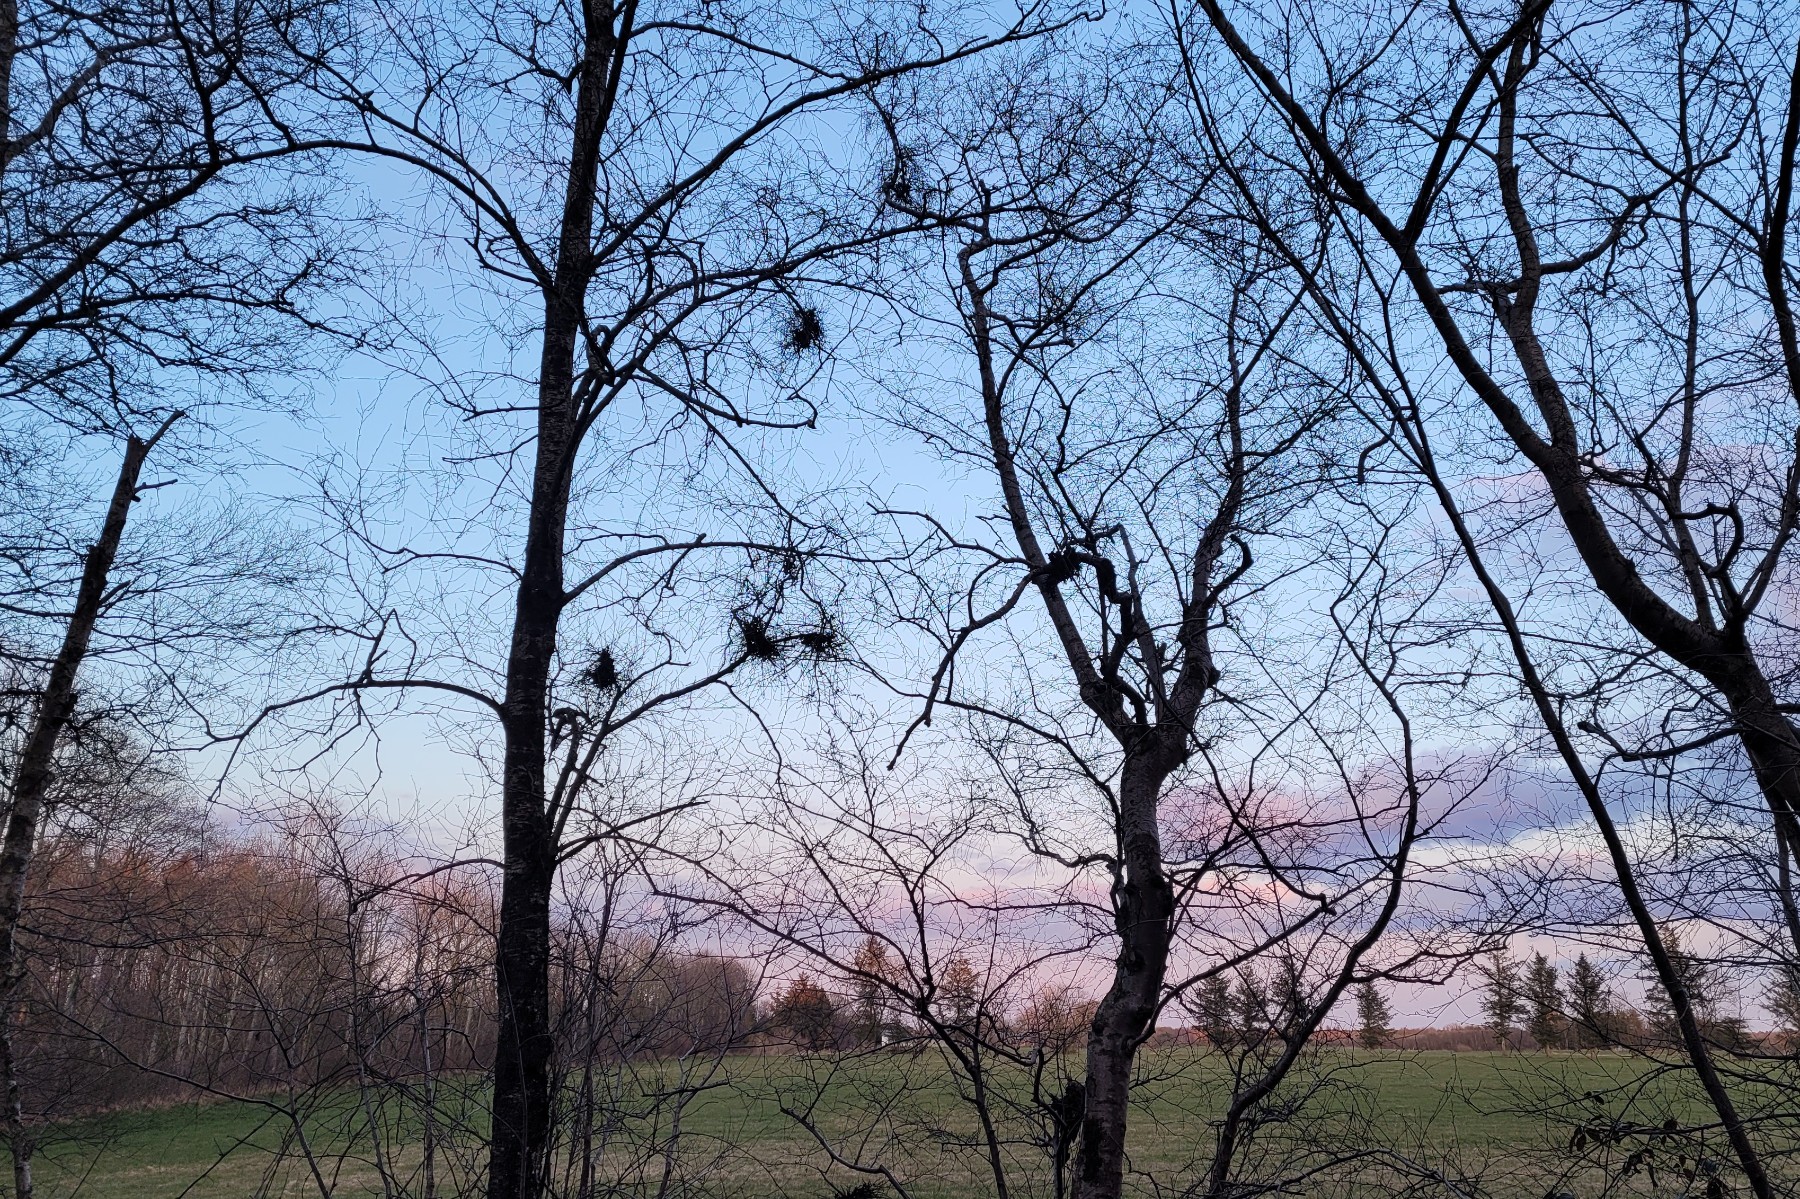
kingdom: Fungi
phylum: Ascomycota
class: Taphrinomycetes
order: Taphrinales
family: Taphrinaceae
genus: Taphrina
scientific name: Taphrina betulina
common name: hekse-sækdug
